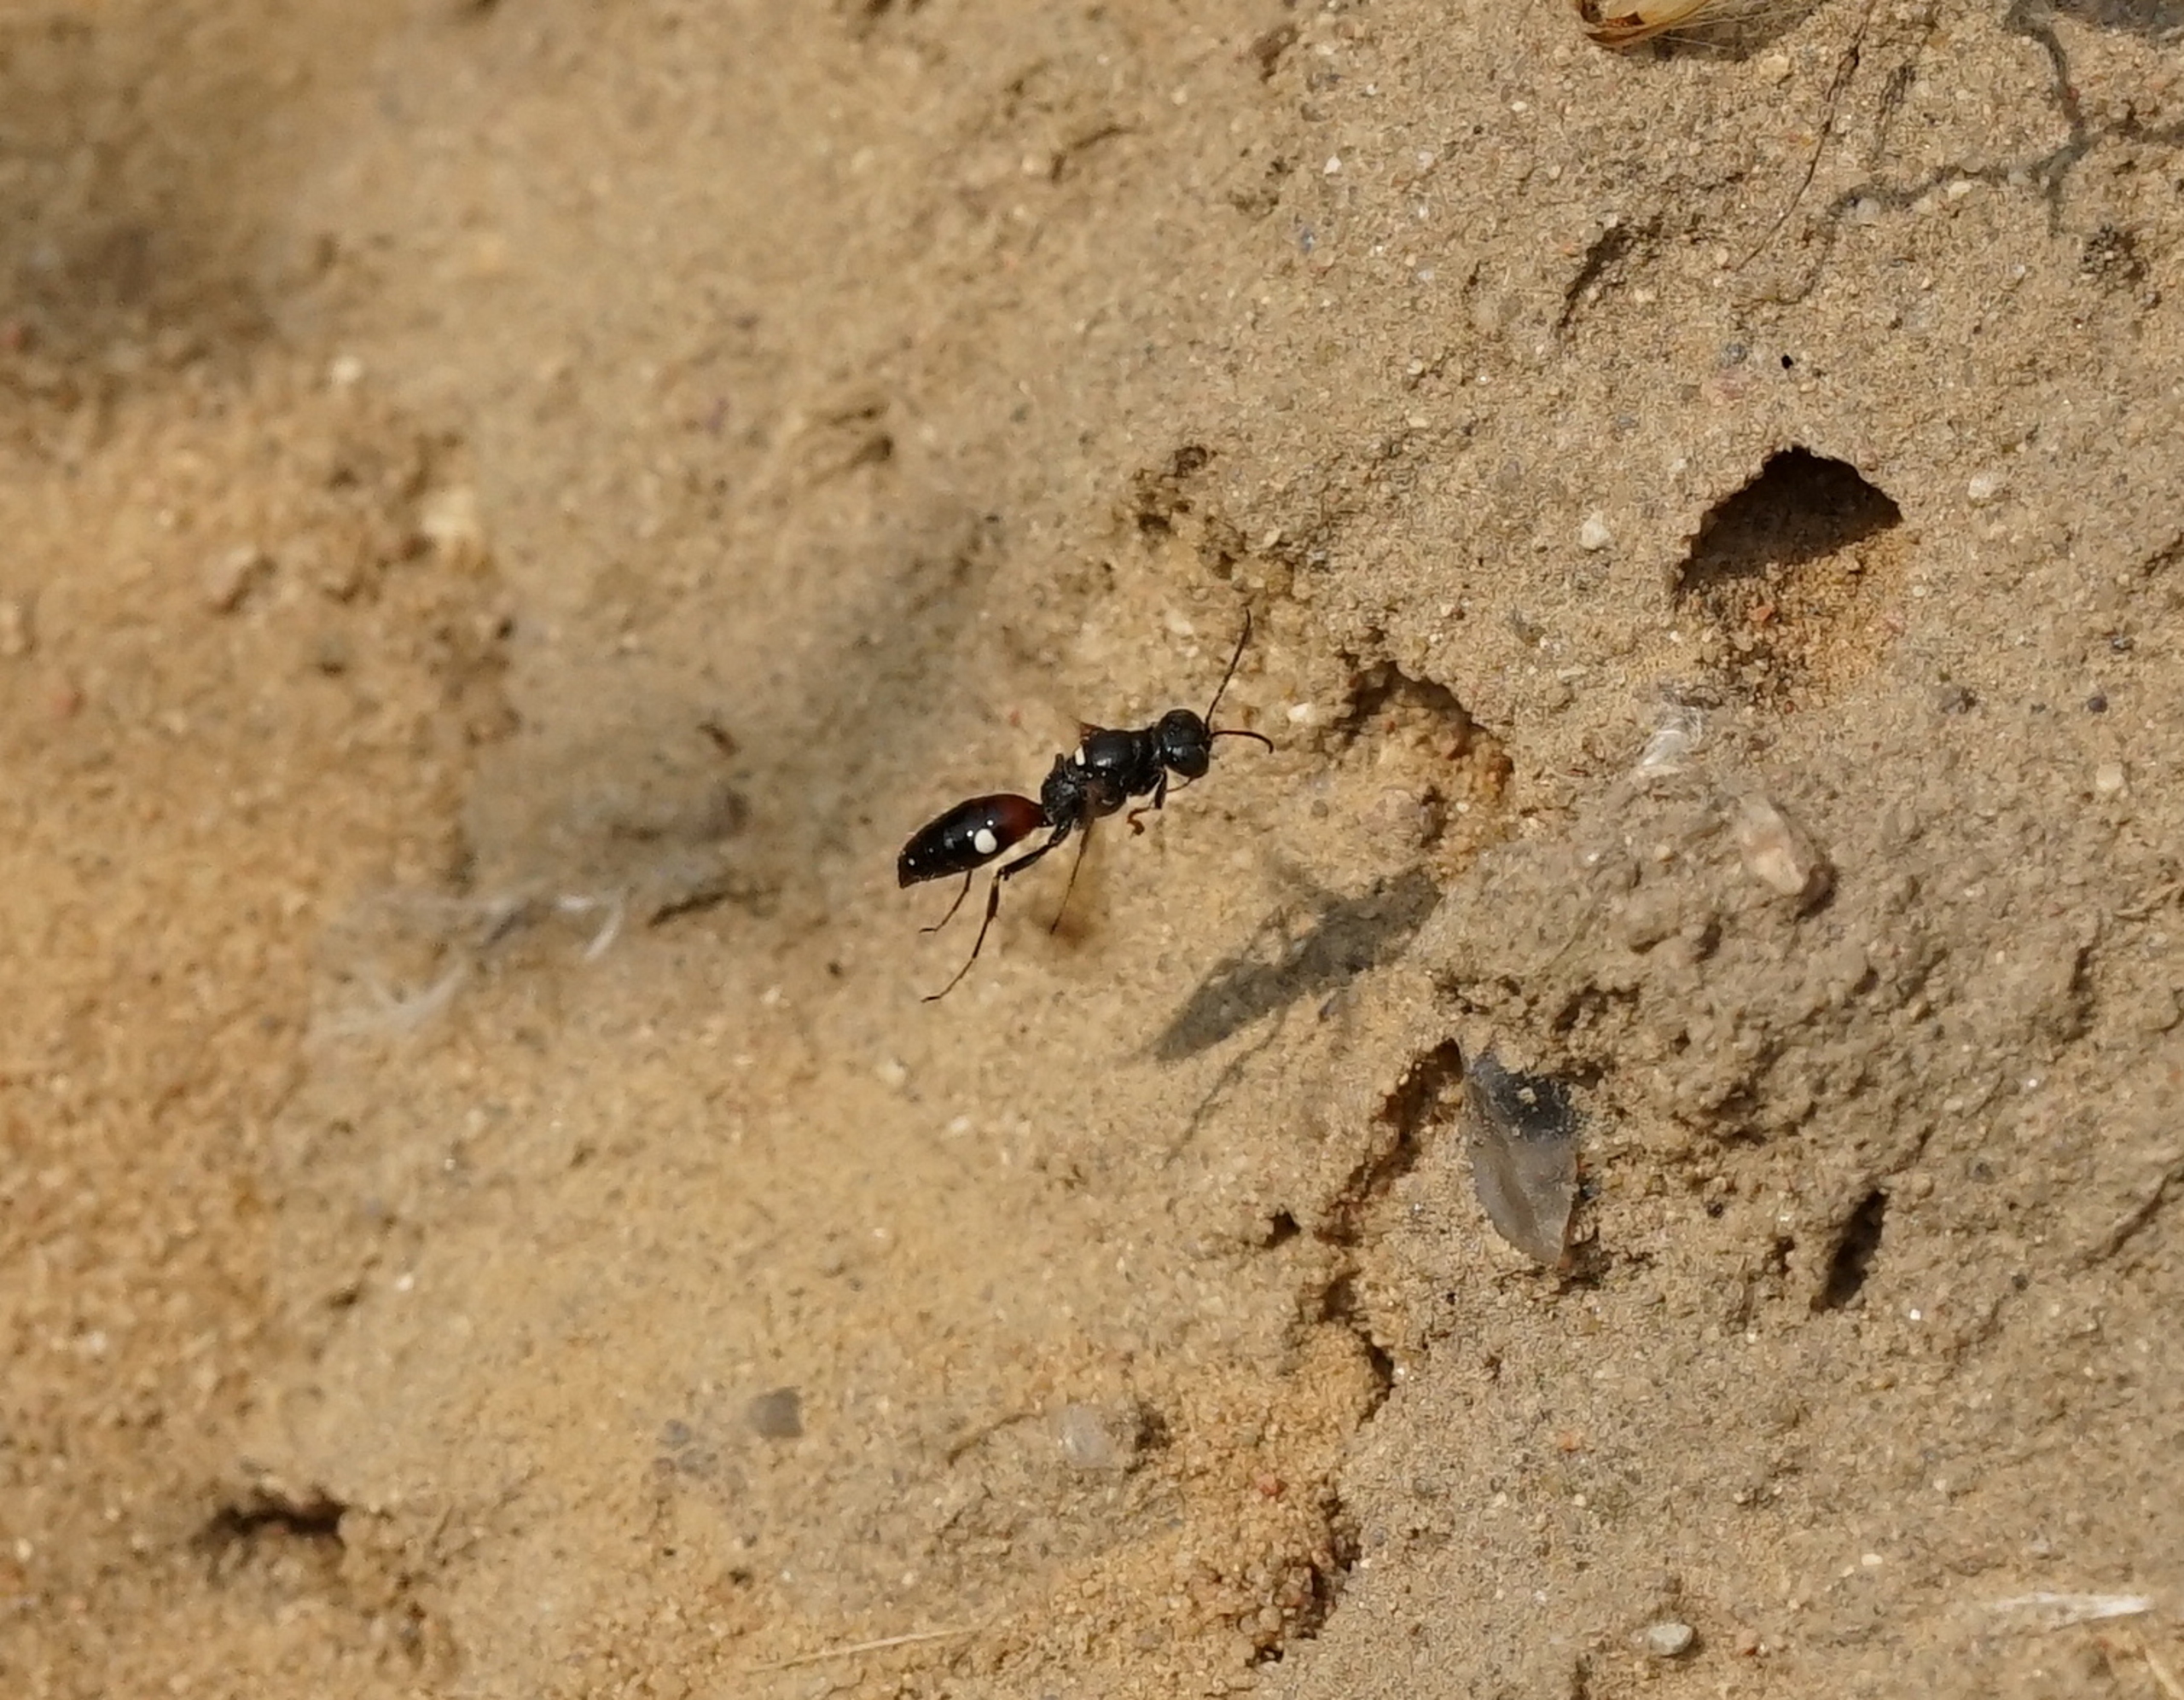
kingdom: Animalia
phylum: Arthropoda
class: Insecta
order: Hymenoptera
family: Crabronidae
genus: Alysson
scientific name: Alysson spinosus
